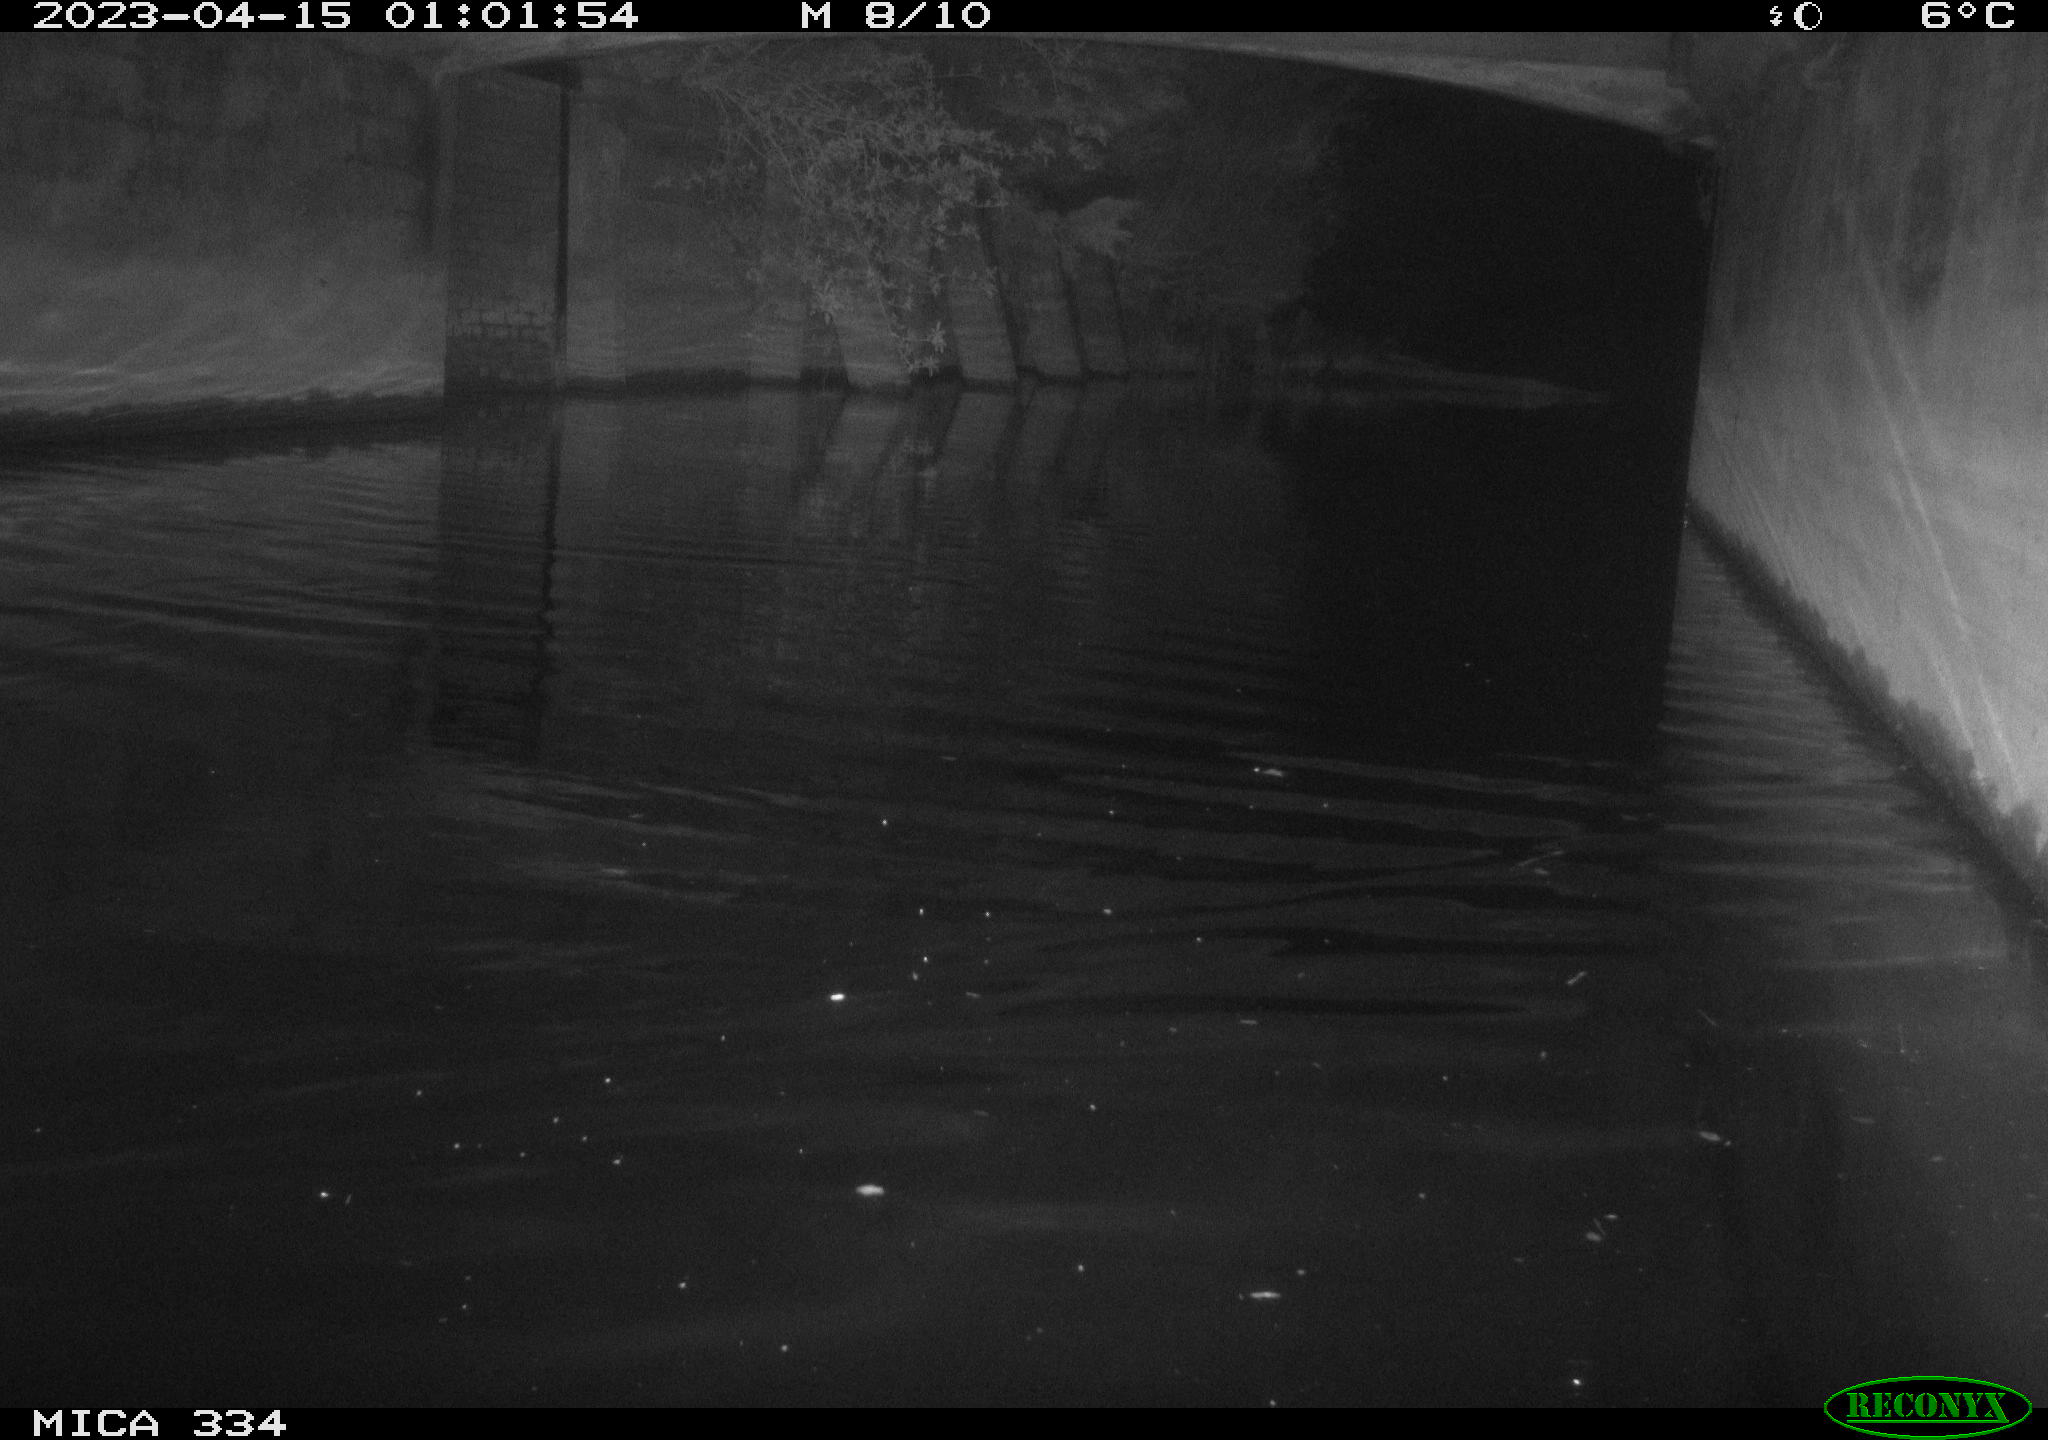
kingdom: Animalia
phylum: Chordata
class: Aves
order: Anseriformes
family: Anatidae
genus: Anas
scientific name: Anas
